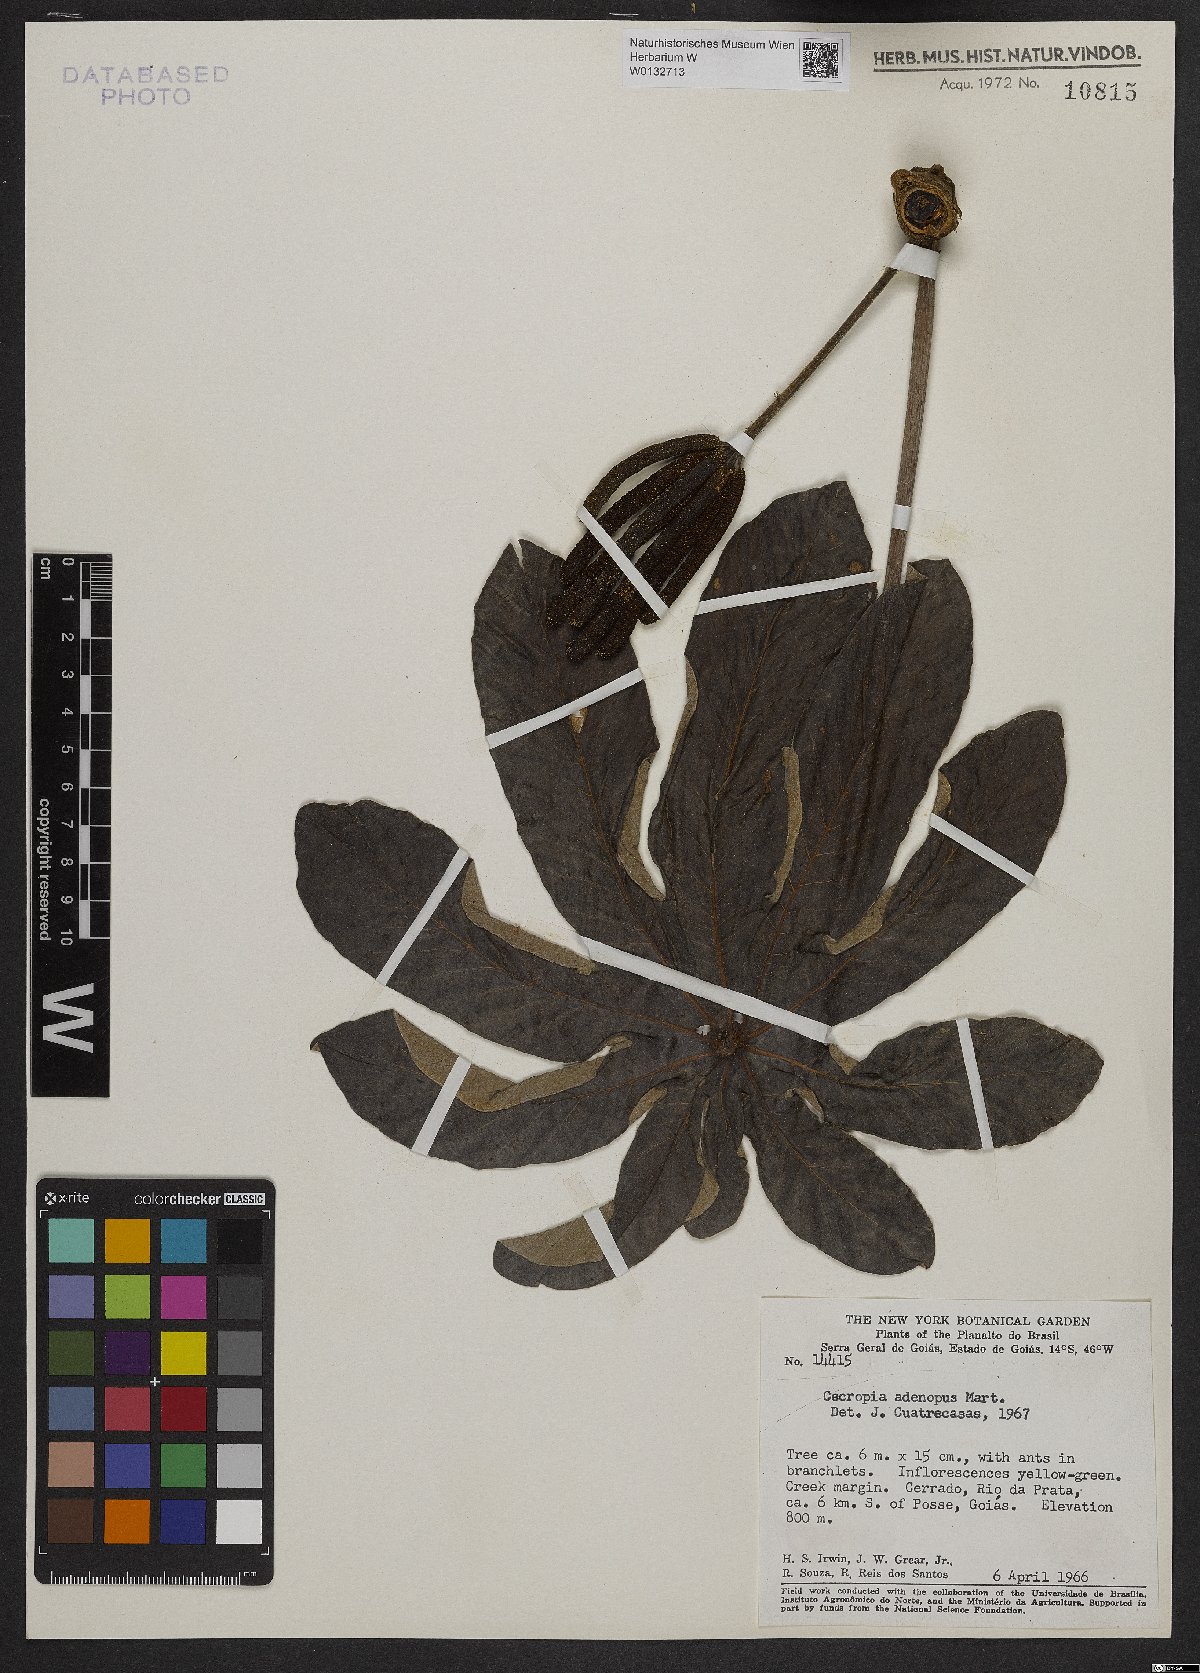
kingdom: Plantae
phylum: Tracheophyta
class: Magnoliopsida
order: Rosales
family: Urticaceae
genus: Cecropia
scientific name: Cecropia pachystachya
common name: Ambay pumpwood
